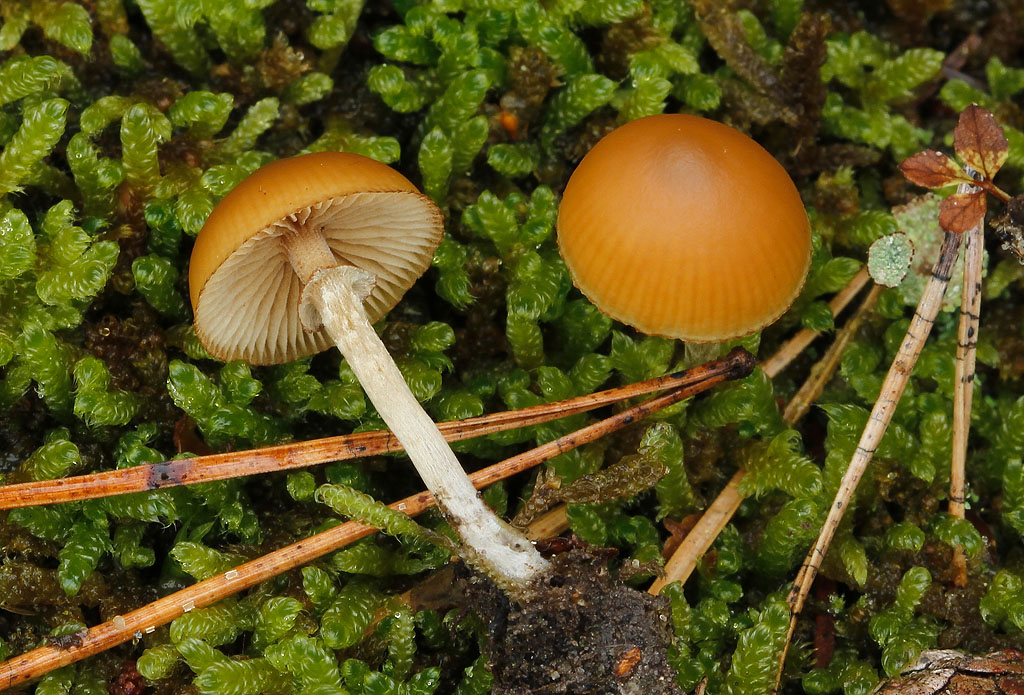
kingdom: Fungi
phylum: Basidiomycota
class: Agaricomycetes
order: Agaricales
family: Hymenogastraceae
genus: Galerina
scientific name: Galerina marginata
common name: randbæltet hjelmhat
